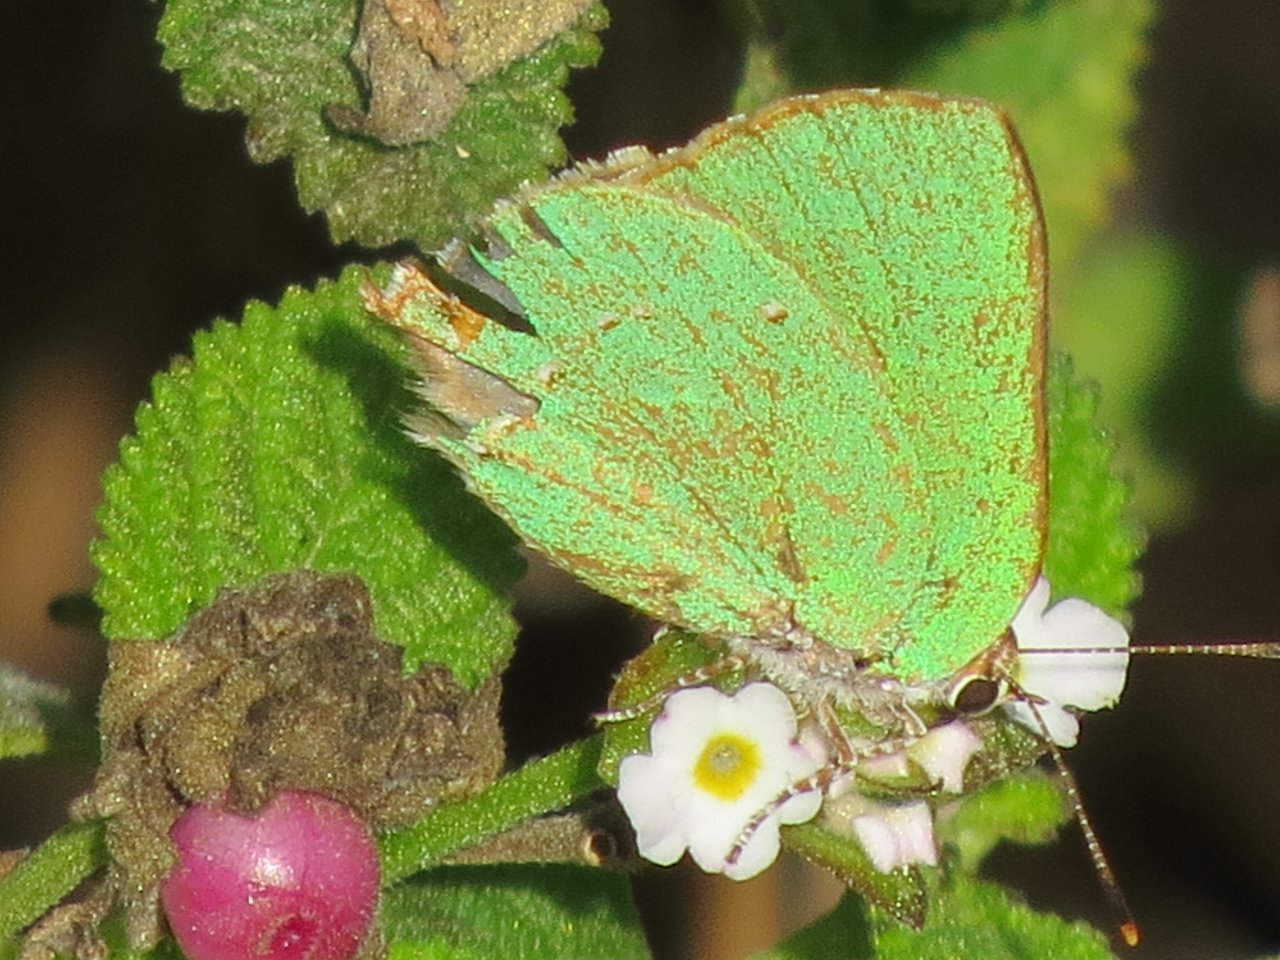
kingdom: Animalia
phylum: Arthropoda
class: Insecta
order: Lepidoptera
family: Lycaenidae
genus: Thecla
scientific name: Thecla herodotus
